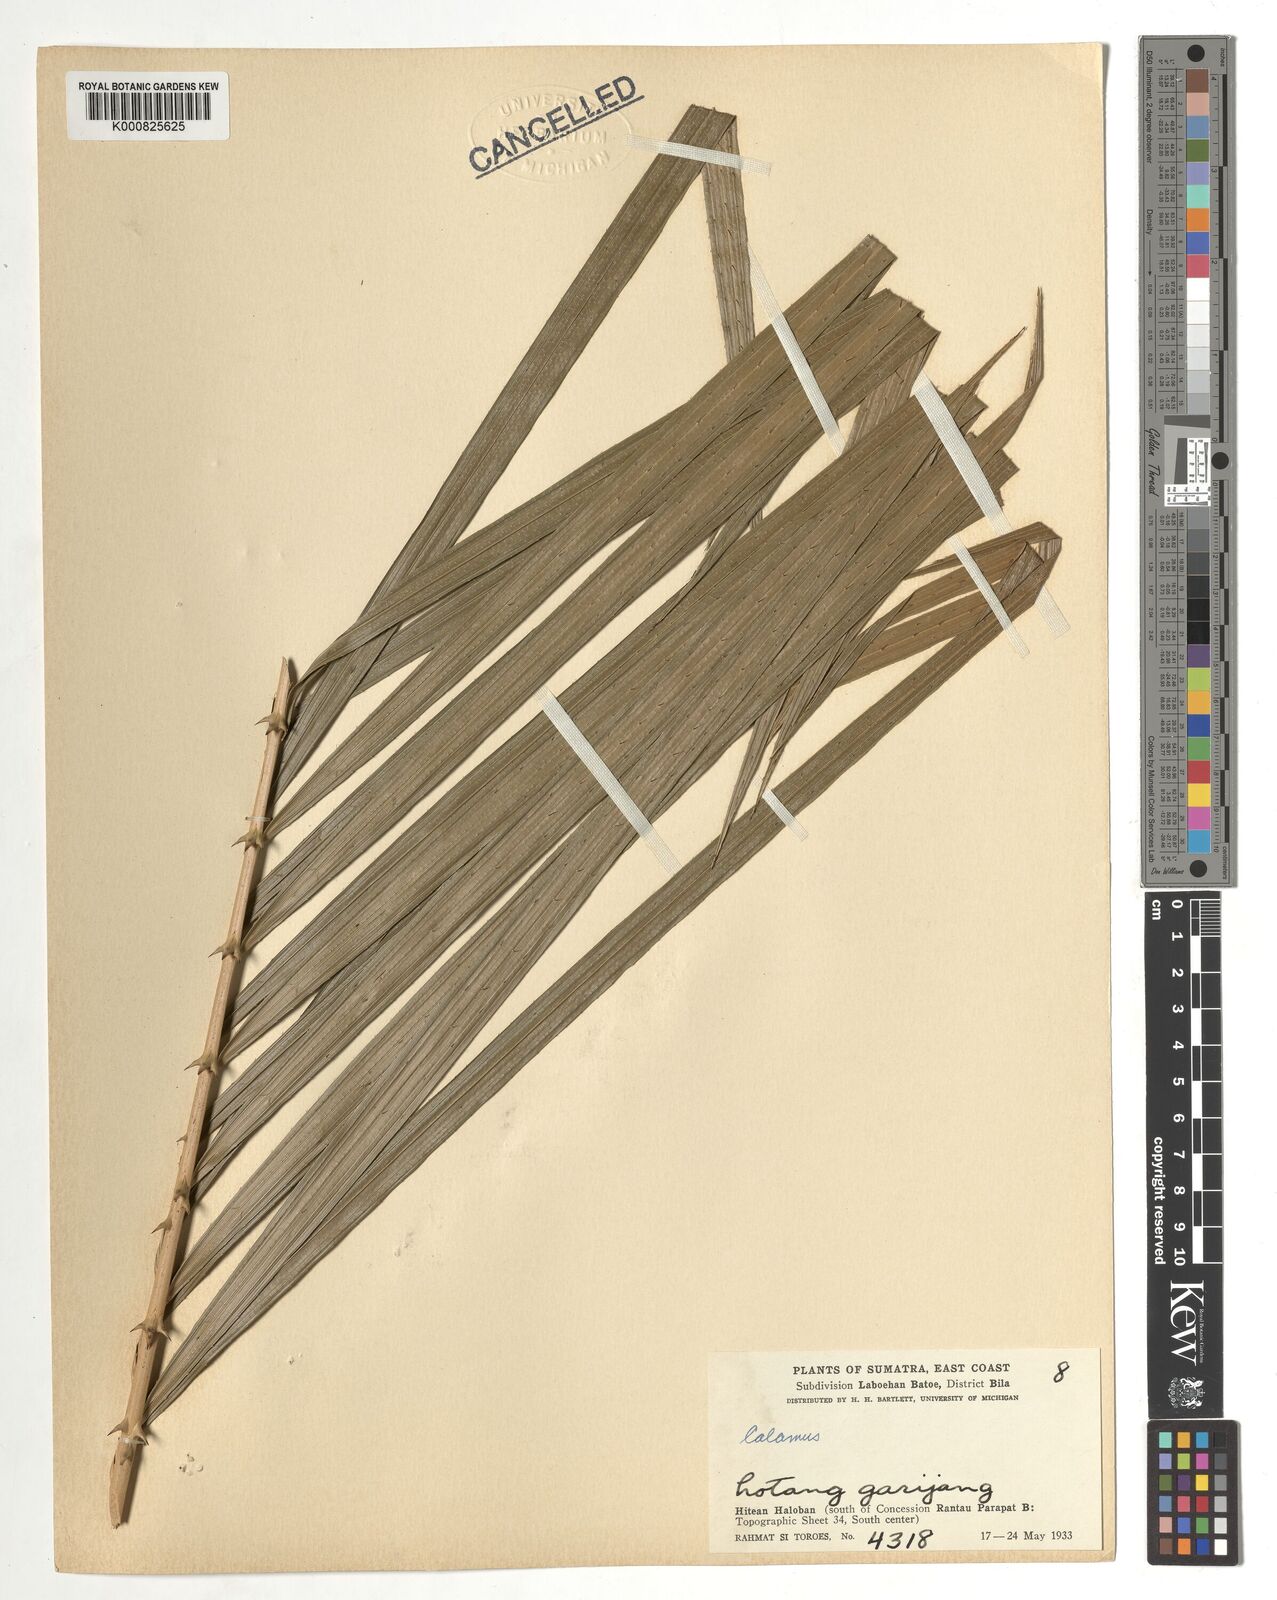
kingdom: Plantae
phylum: Tracheophyta
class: Liliopsida
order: Arecales
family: Arecaceae
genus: Calamus
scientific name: Calamus
